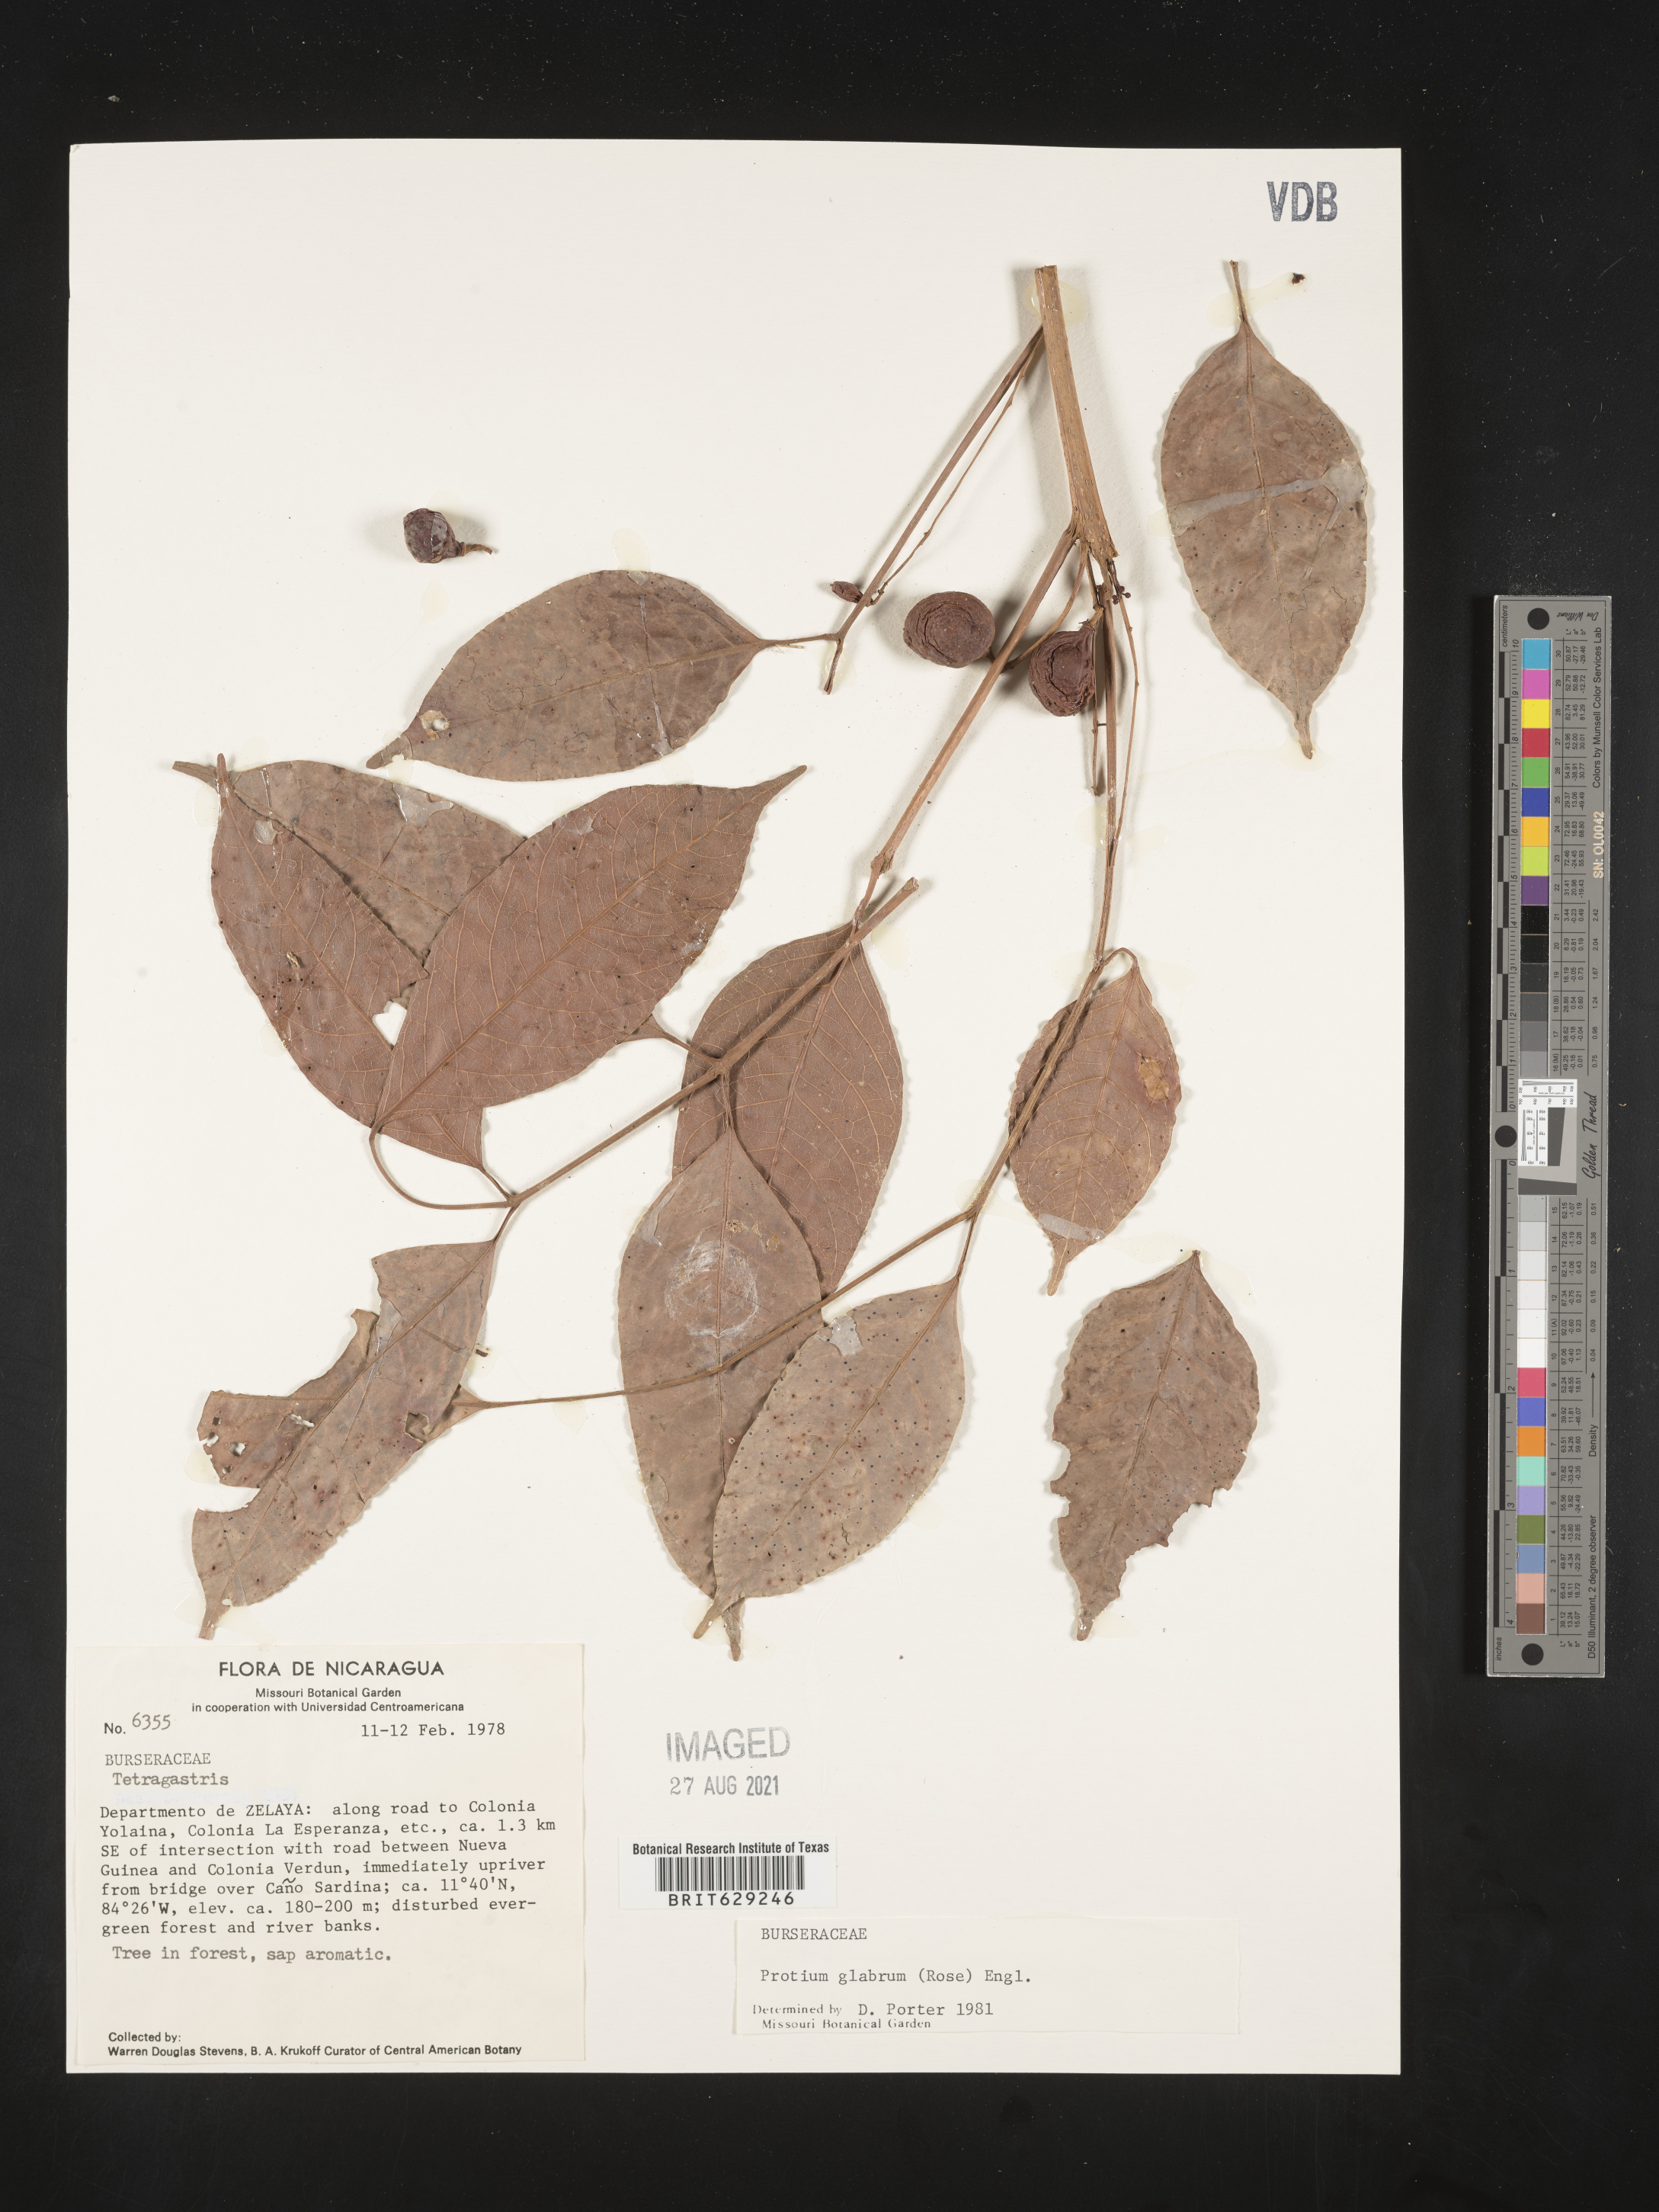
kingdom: Plantae
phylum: Tracheophyta
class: Magnoliopsida
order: Sapindales
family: Burseraceae
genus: Protium
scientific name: Protium glabrum
